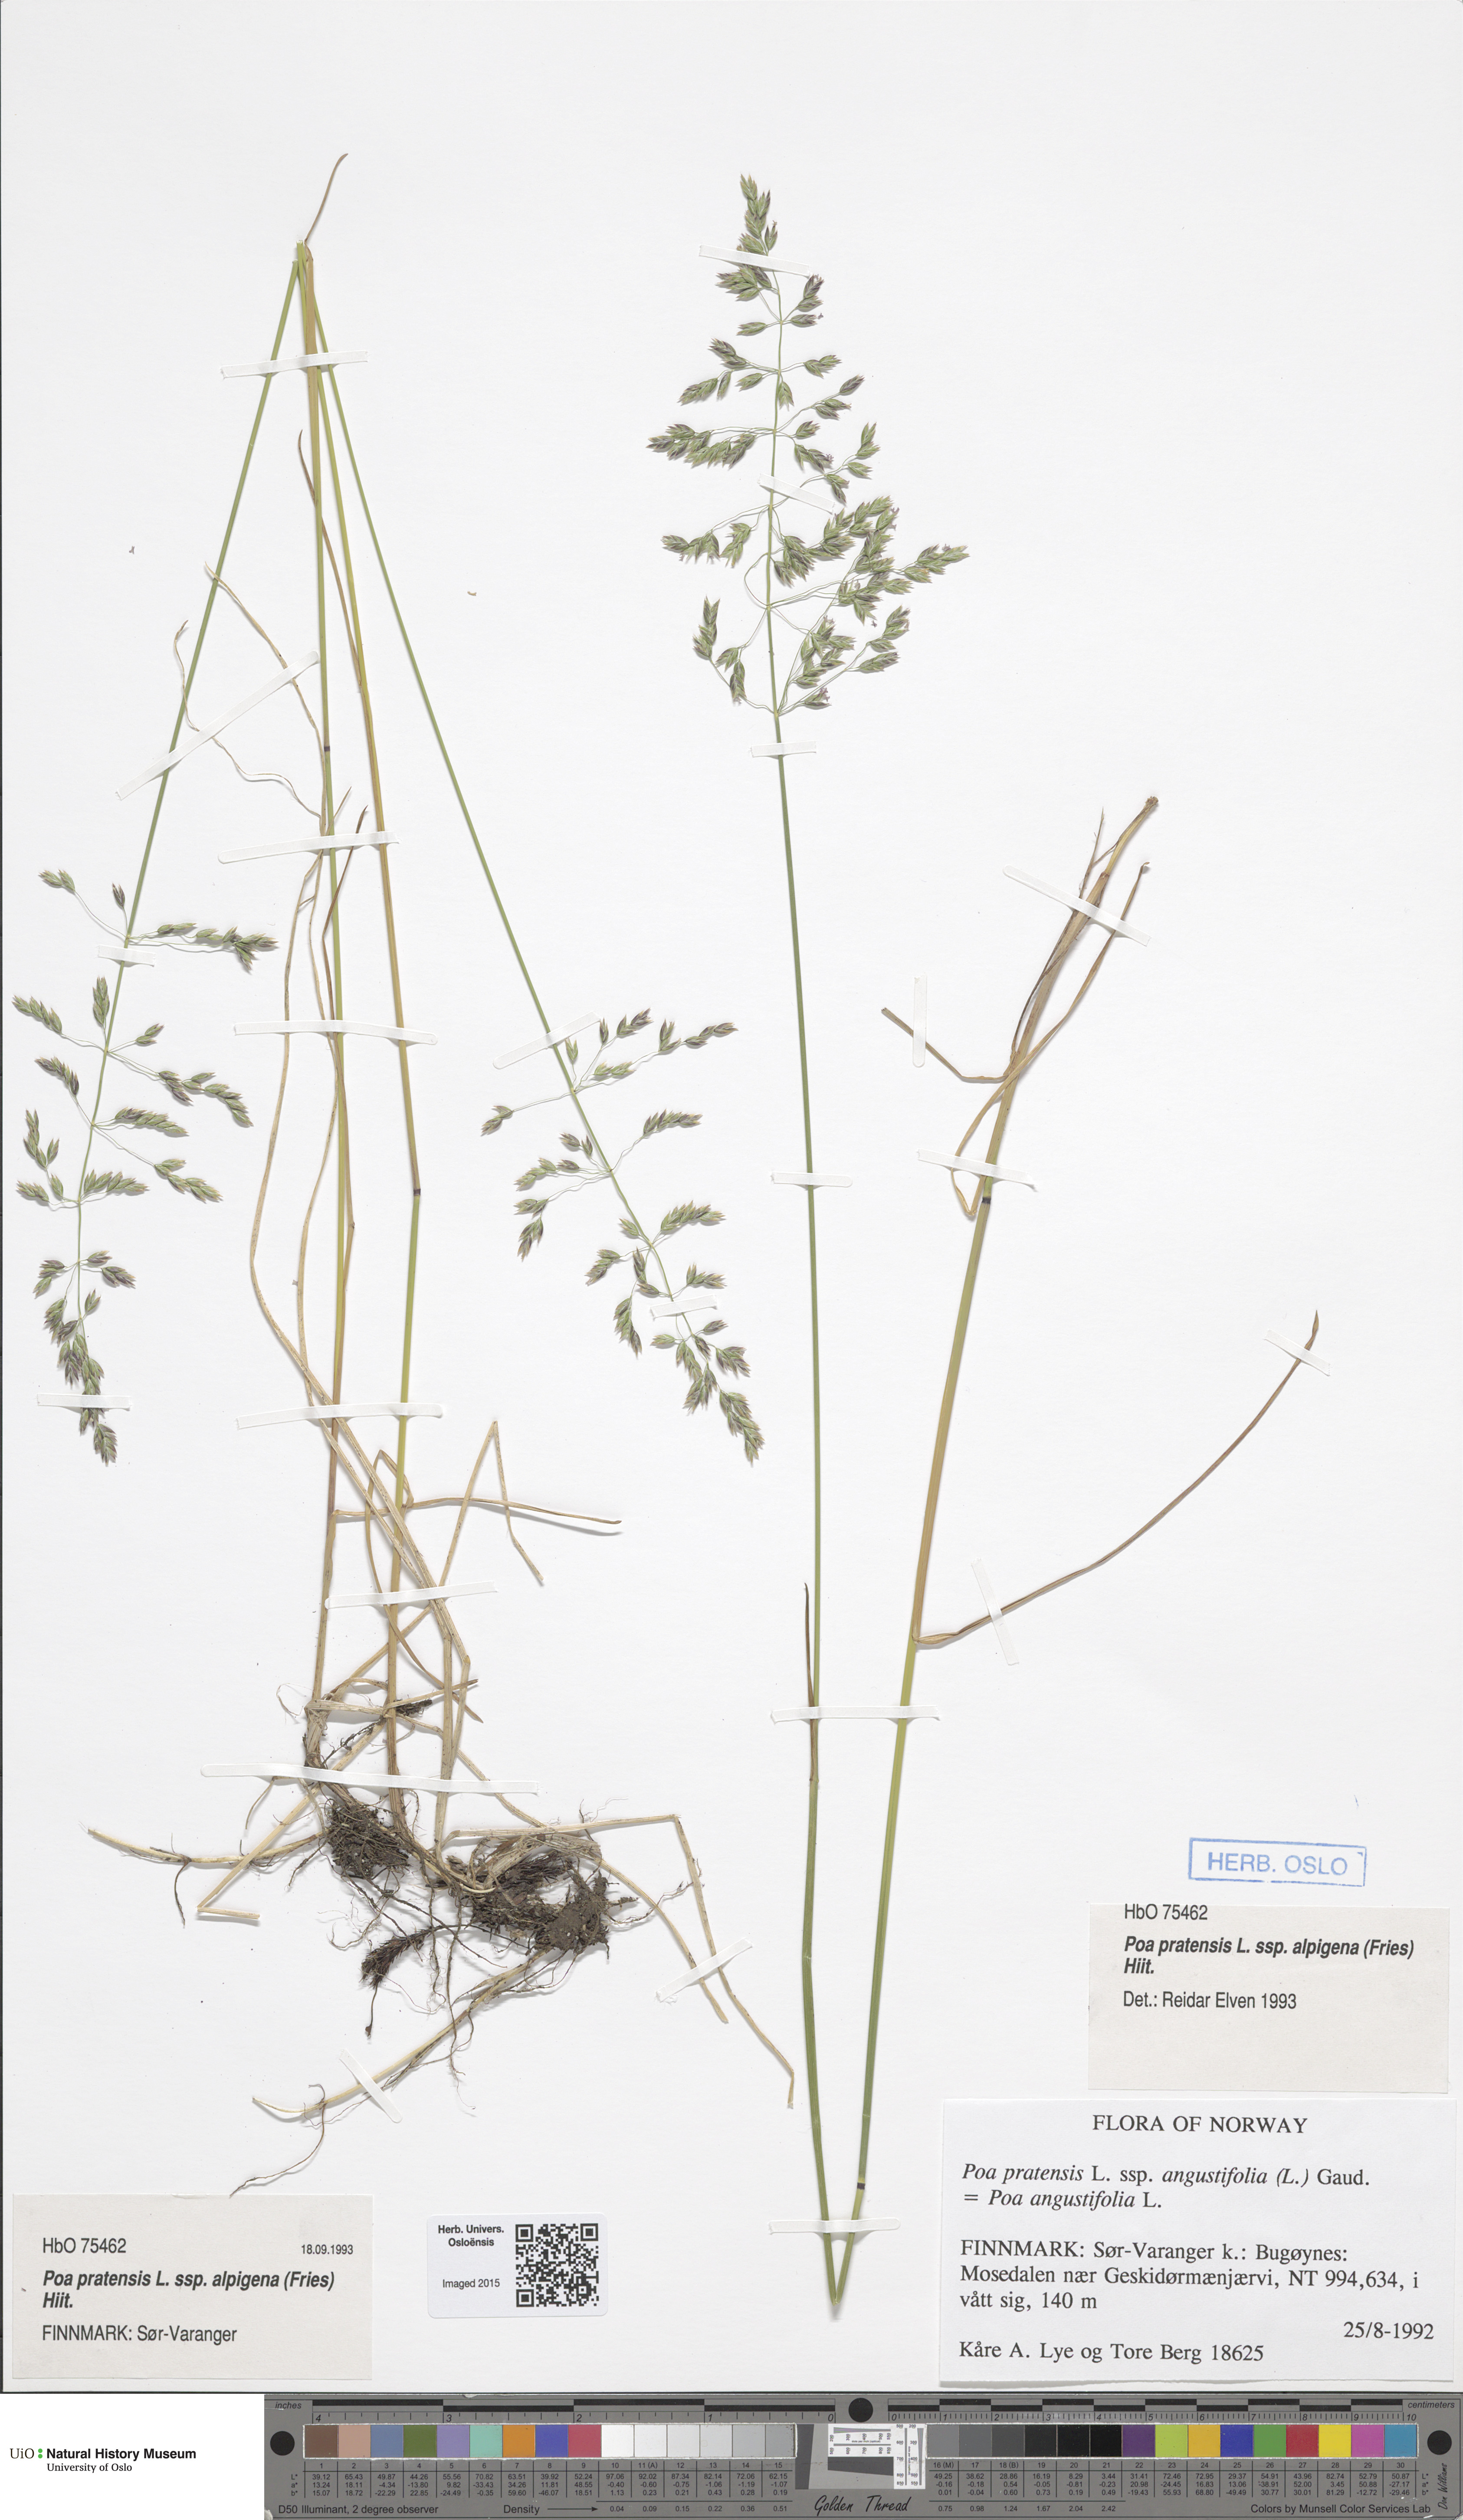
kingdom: Plantae
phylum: Tracheophyta
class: Liliopsida
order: Poales
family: Poaceae
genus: Poa
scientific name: Poa alpigena
